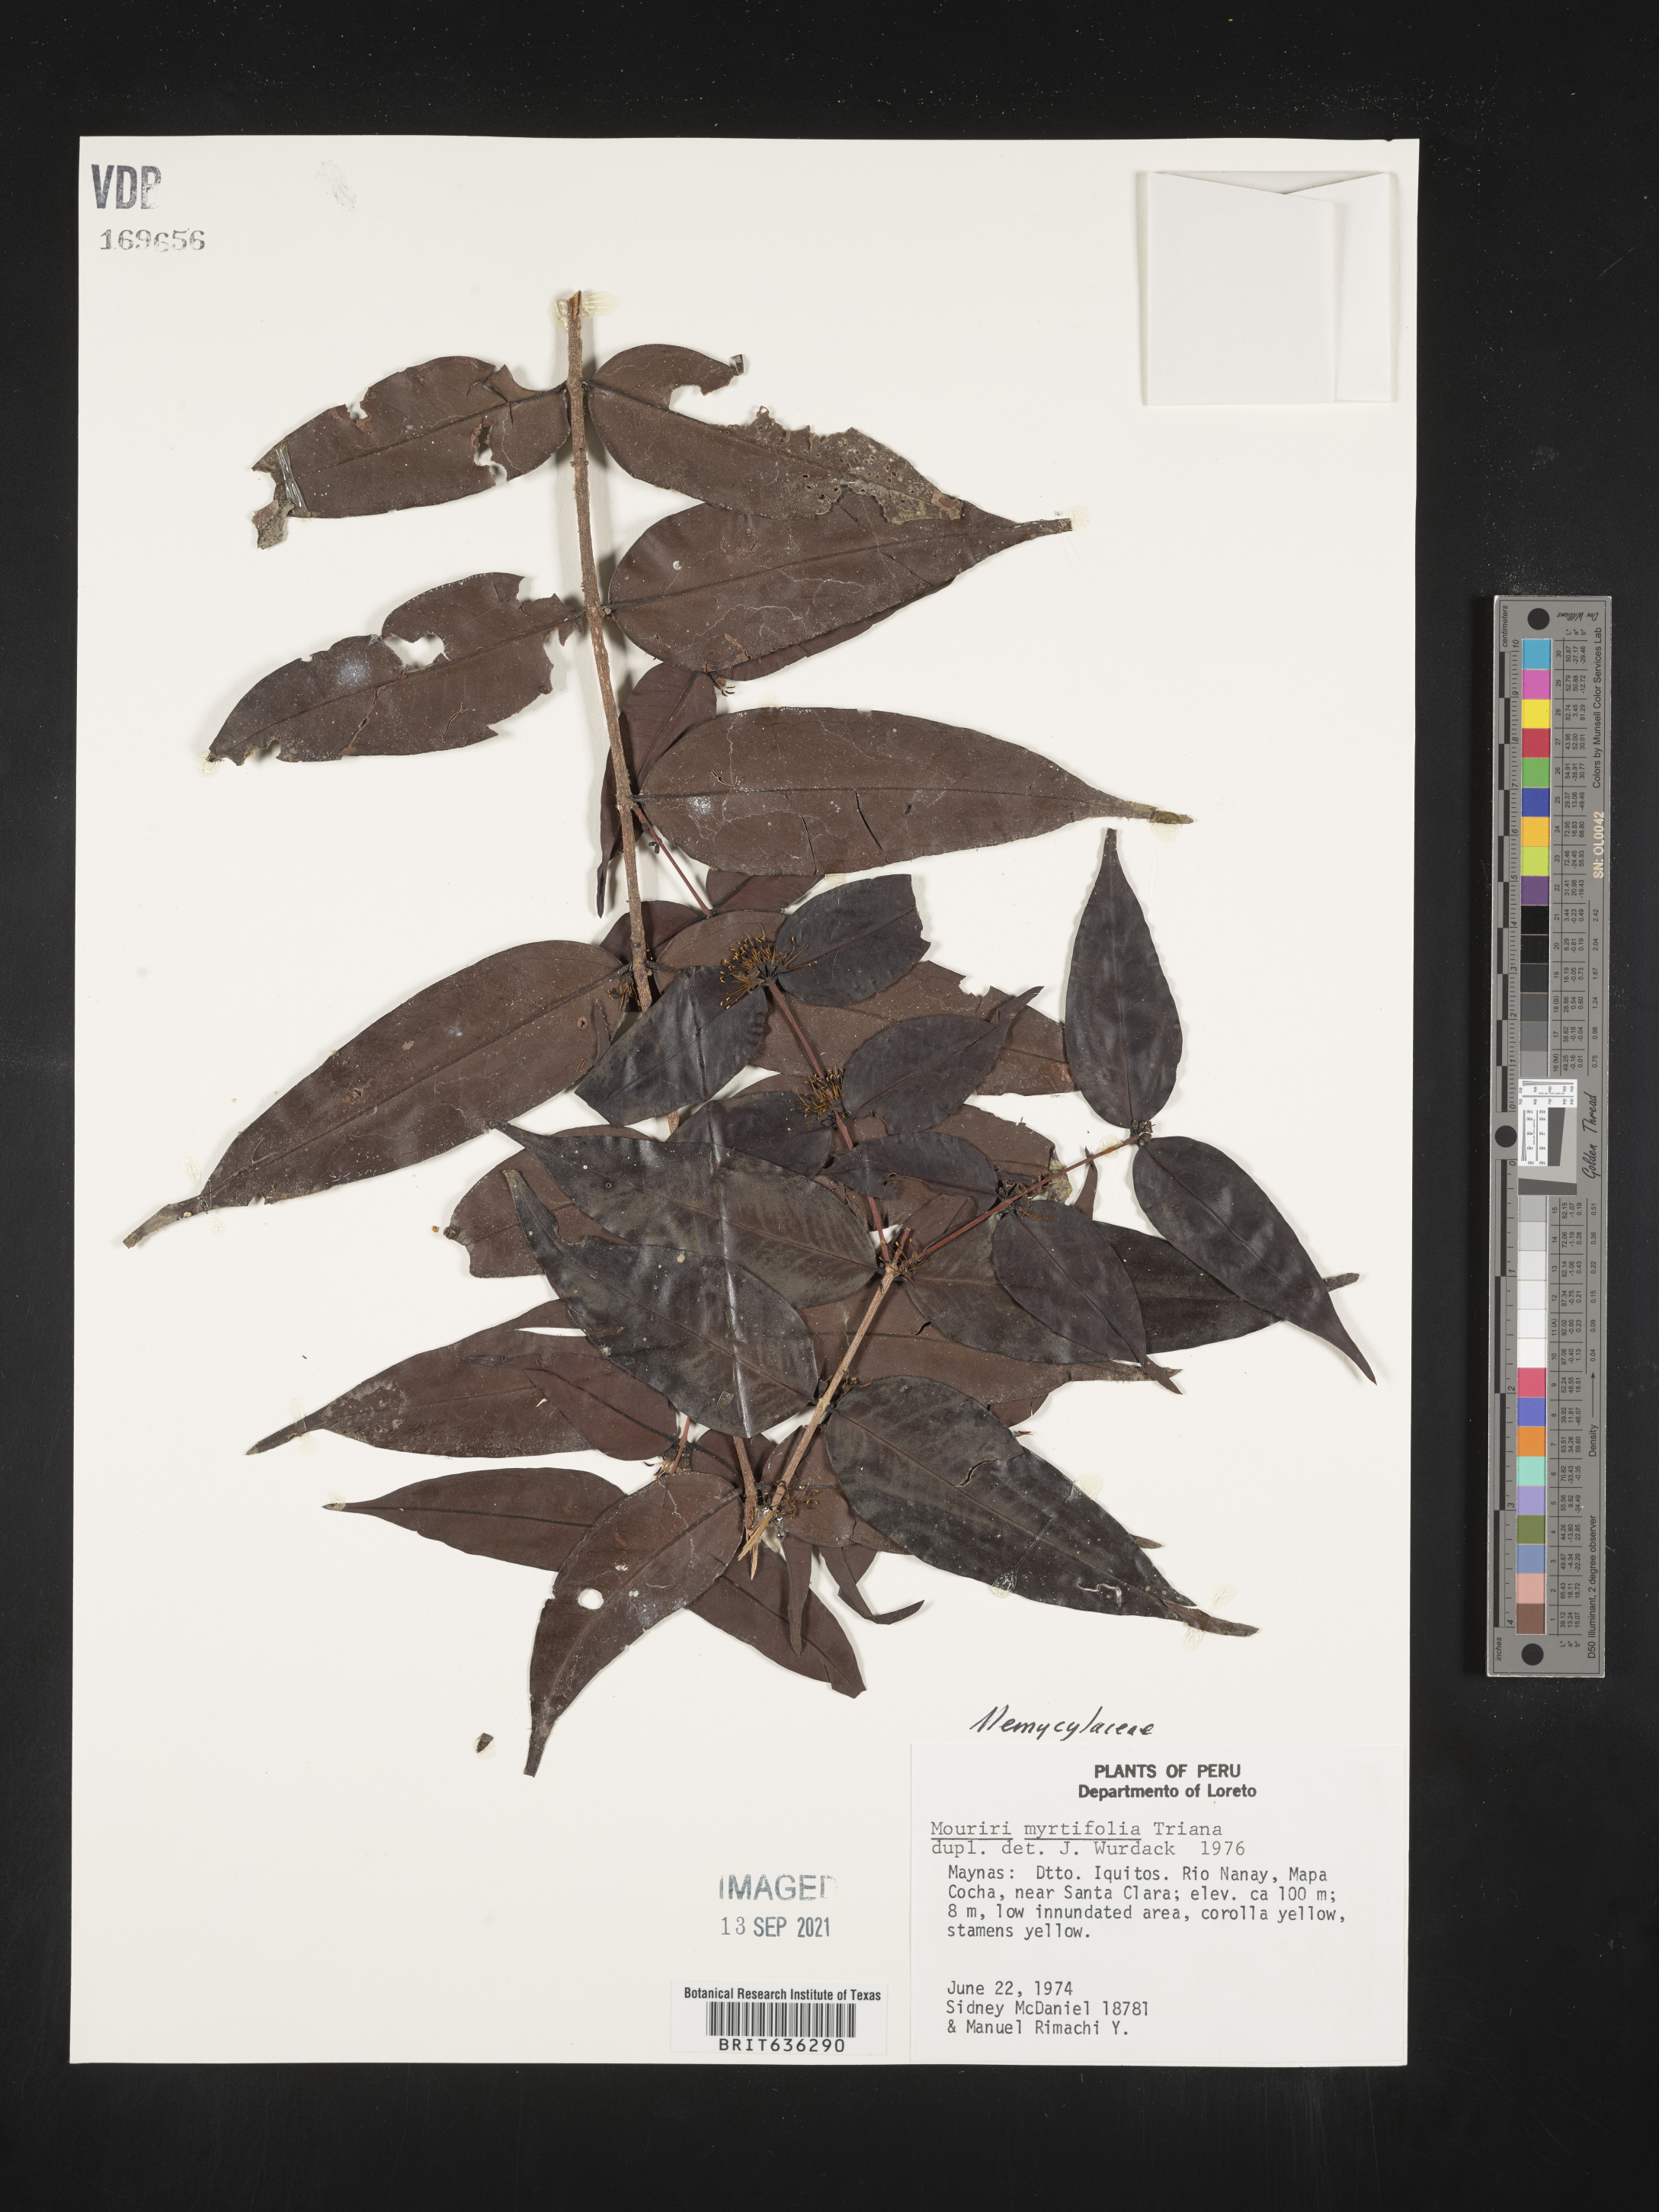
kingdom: Plantae
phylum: Tracheophyta
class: Magnoliopsida
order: Myrtales
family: Melastomataceae
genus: Mouriri
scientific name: Mouriri
